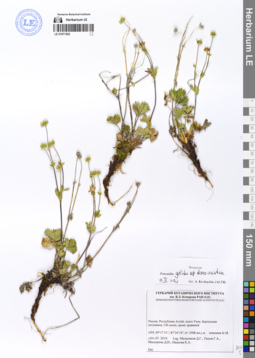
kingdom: Plantae
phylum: Tracheophyta
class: Magnoliopsida
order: Rosales
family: Rosaceae
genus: Potentilla
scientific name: Potentilla crantzii
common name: Alpine cinquefoil
